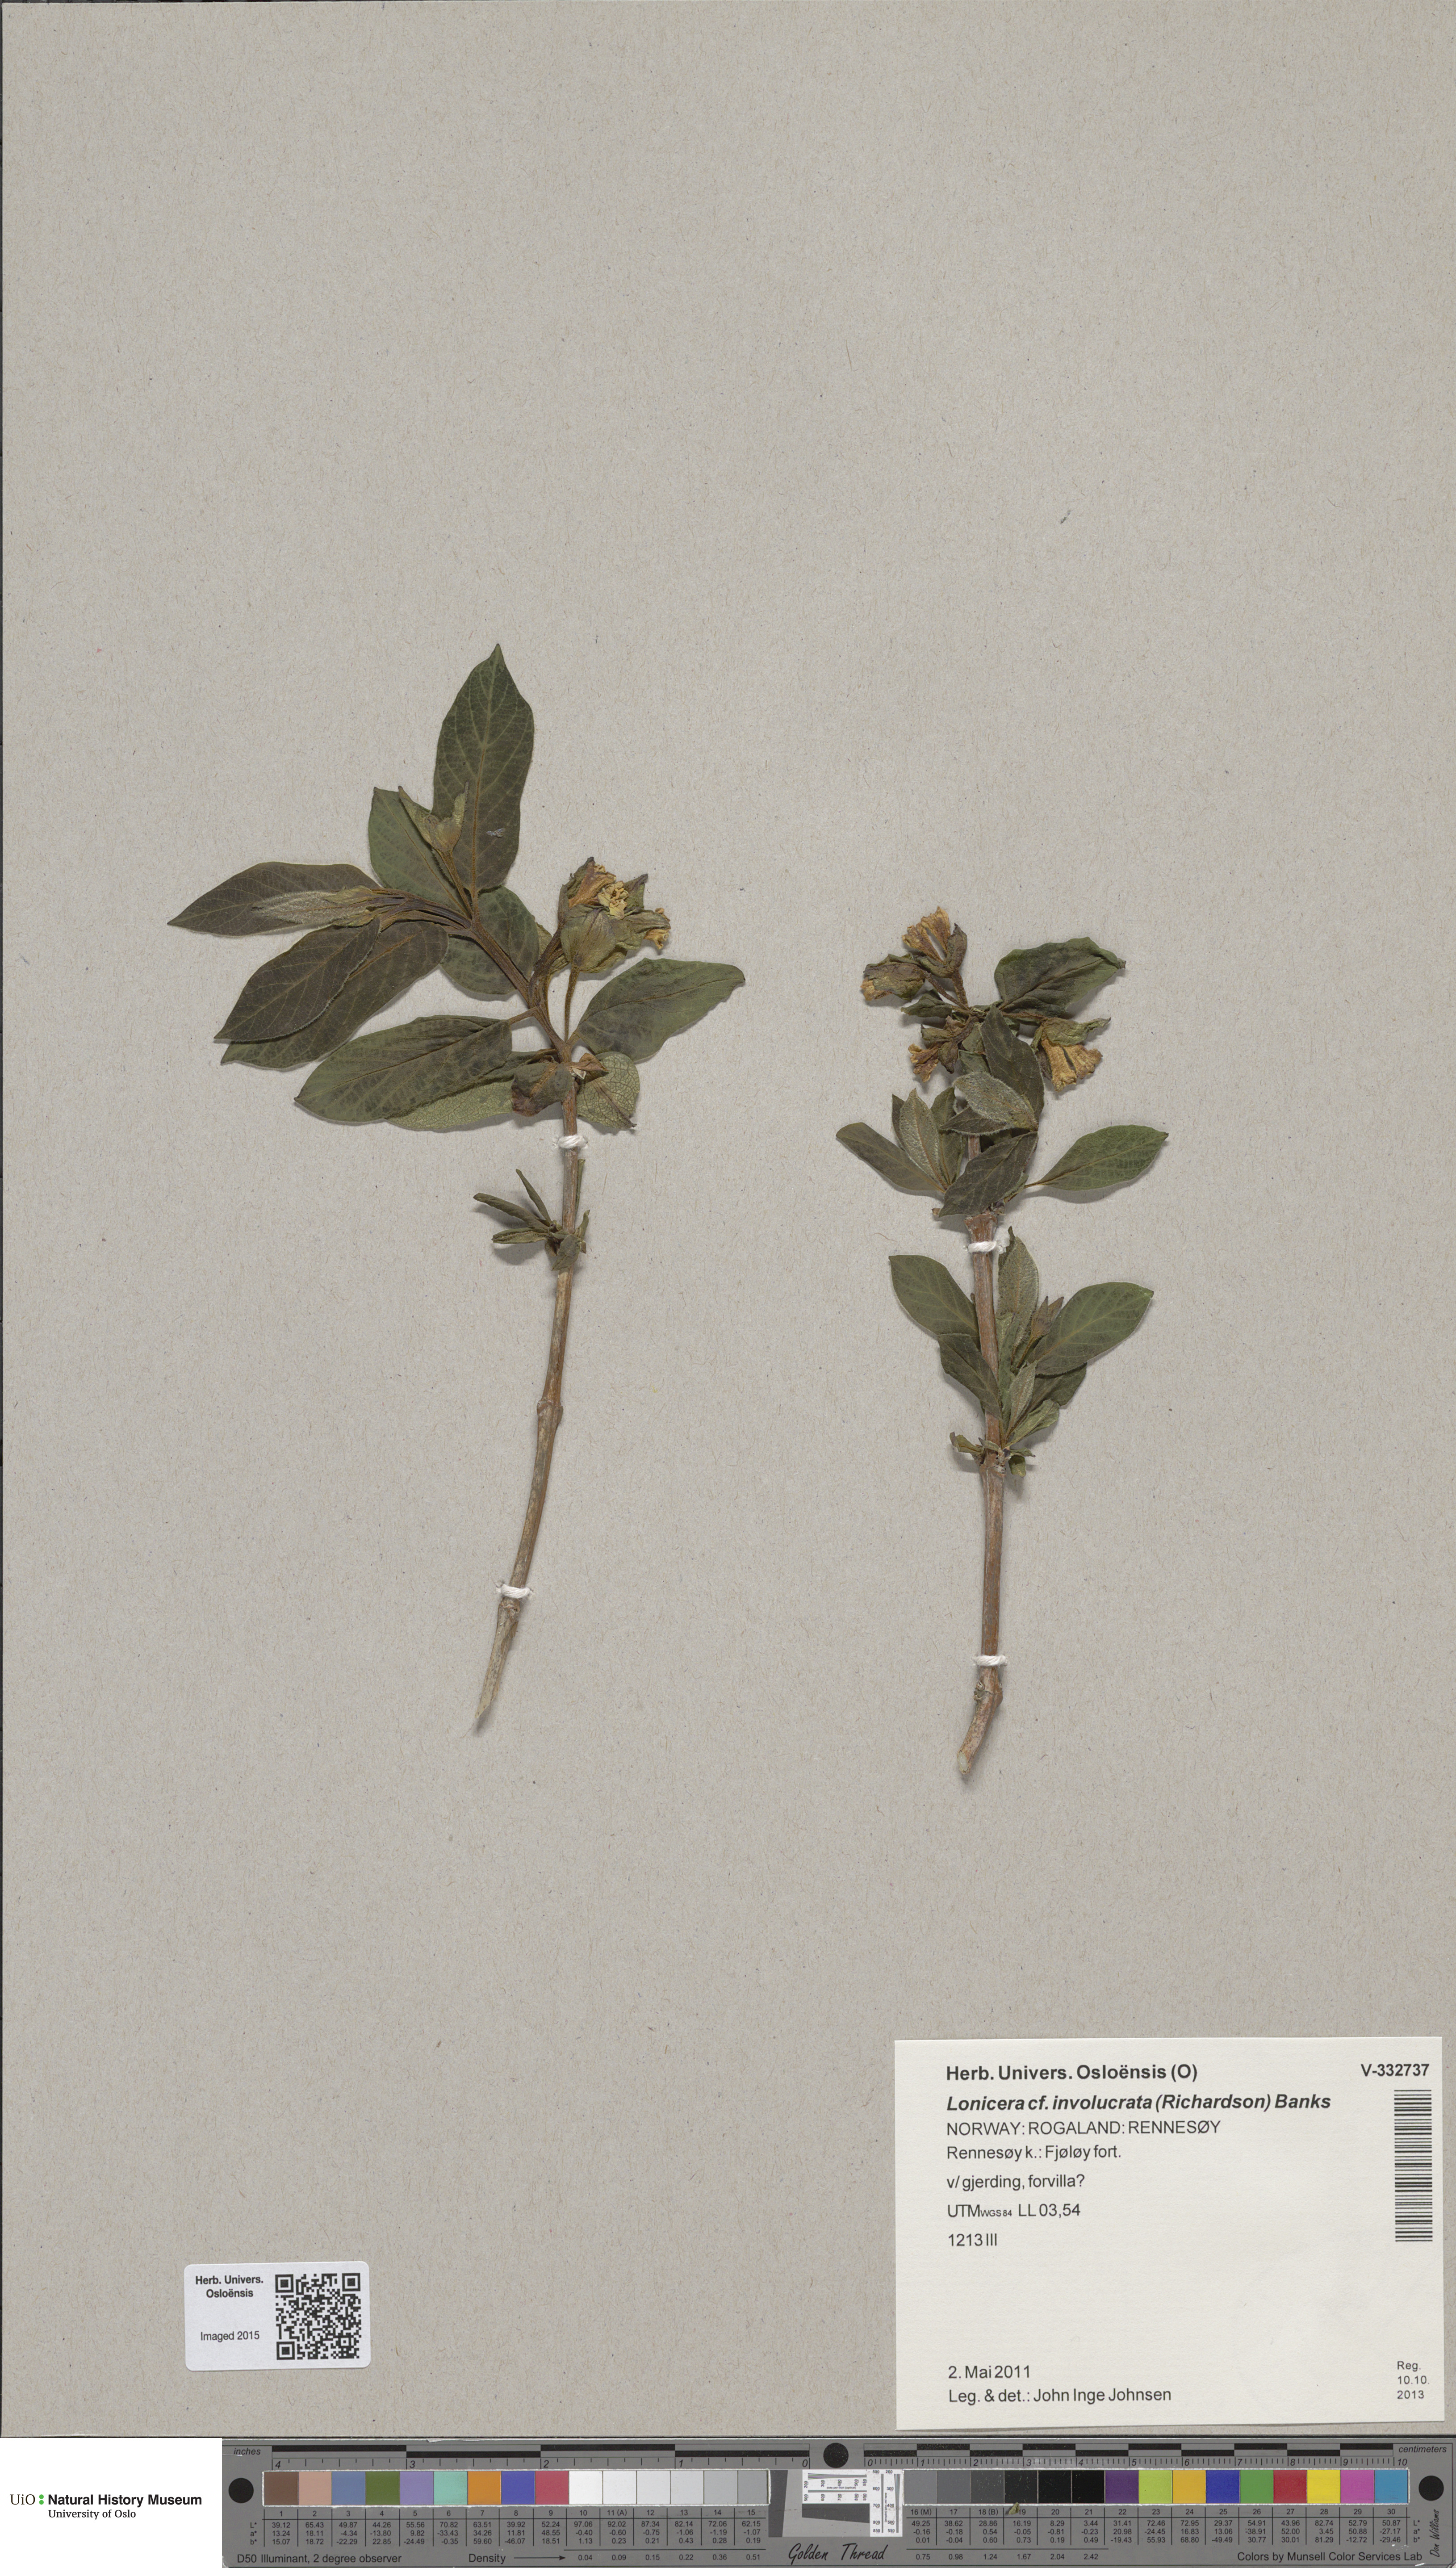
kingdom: Plantae
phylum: Tracheophyta
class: Magnoliopsida
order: Dipsacales
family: Caprifoliaceae
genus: Lonicera
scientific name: Lonicera involucrata
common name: Californian honeysuckle
